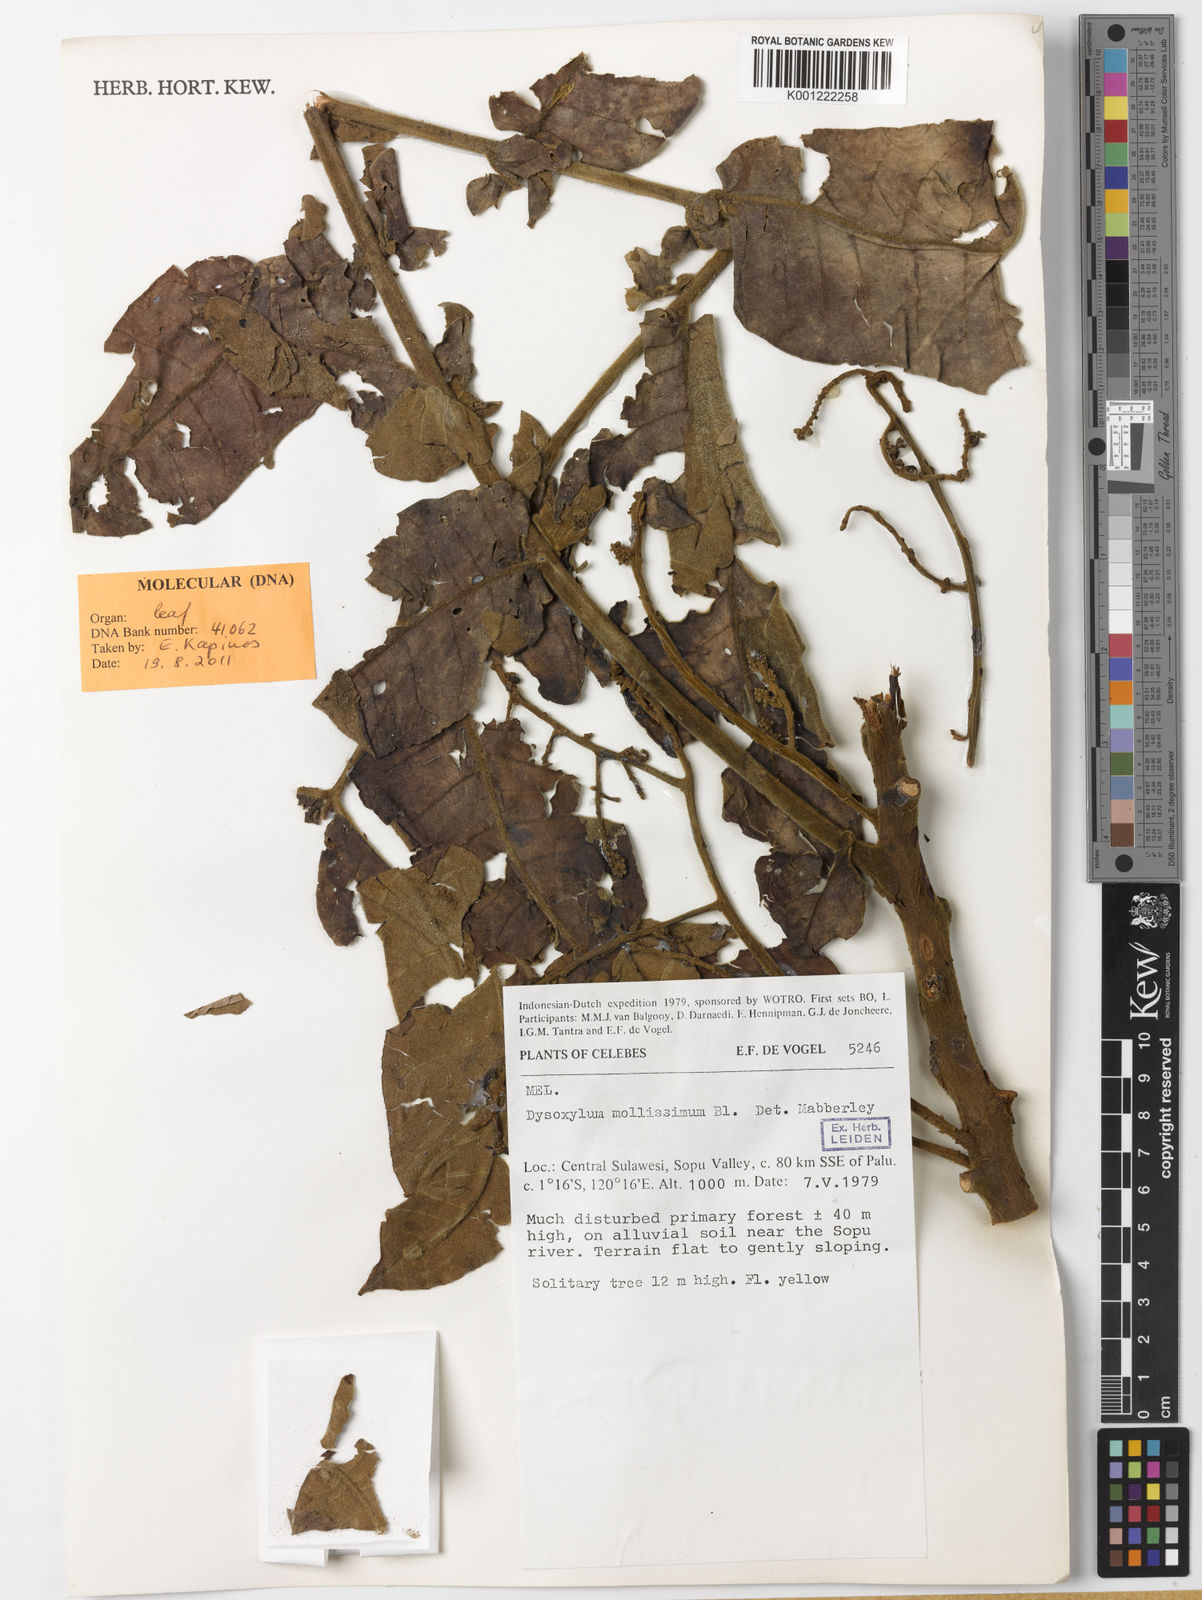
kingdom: Plantae
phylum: Tracheophyta
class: Magnoliopsida
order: Sapindales
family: Meliaceae
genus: Dysoxylum
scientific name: Dysoxylum mollissimum
